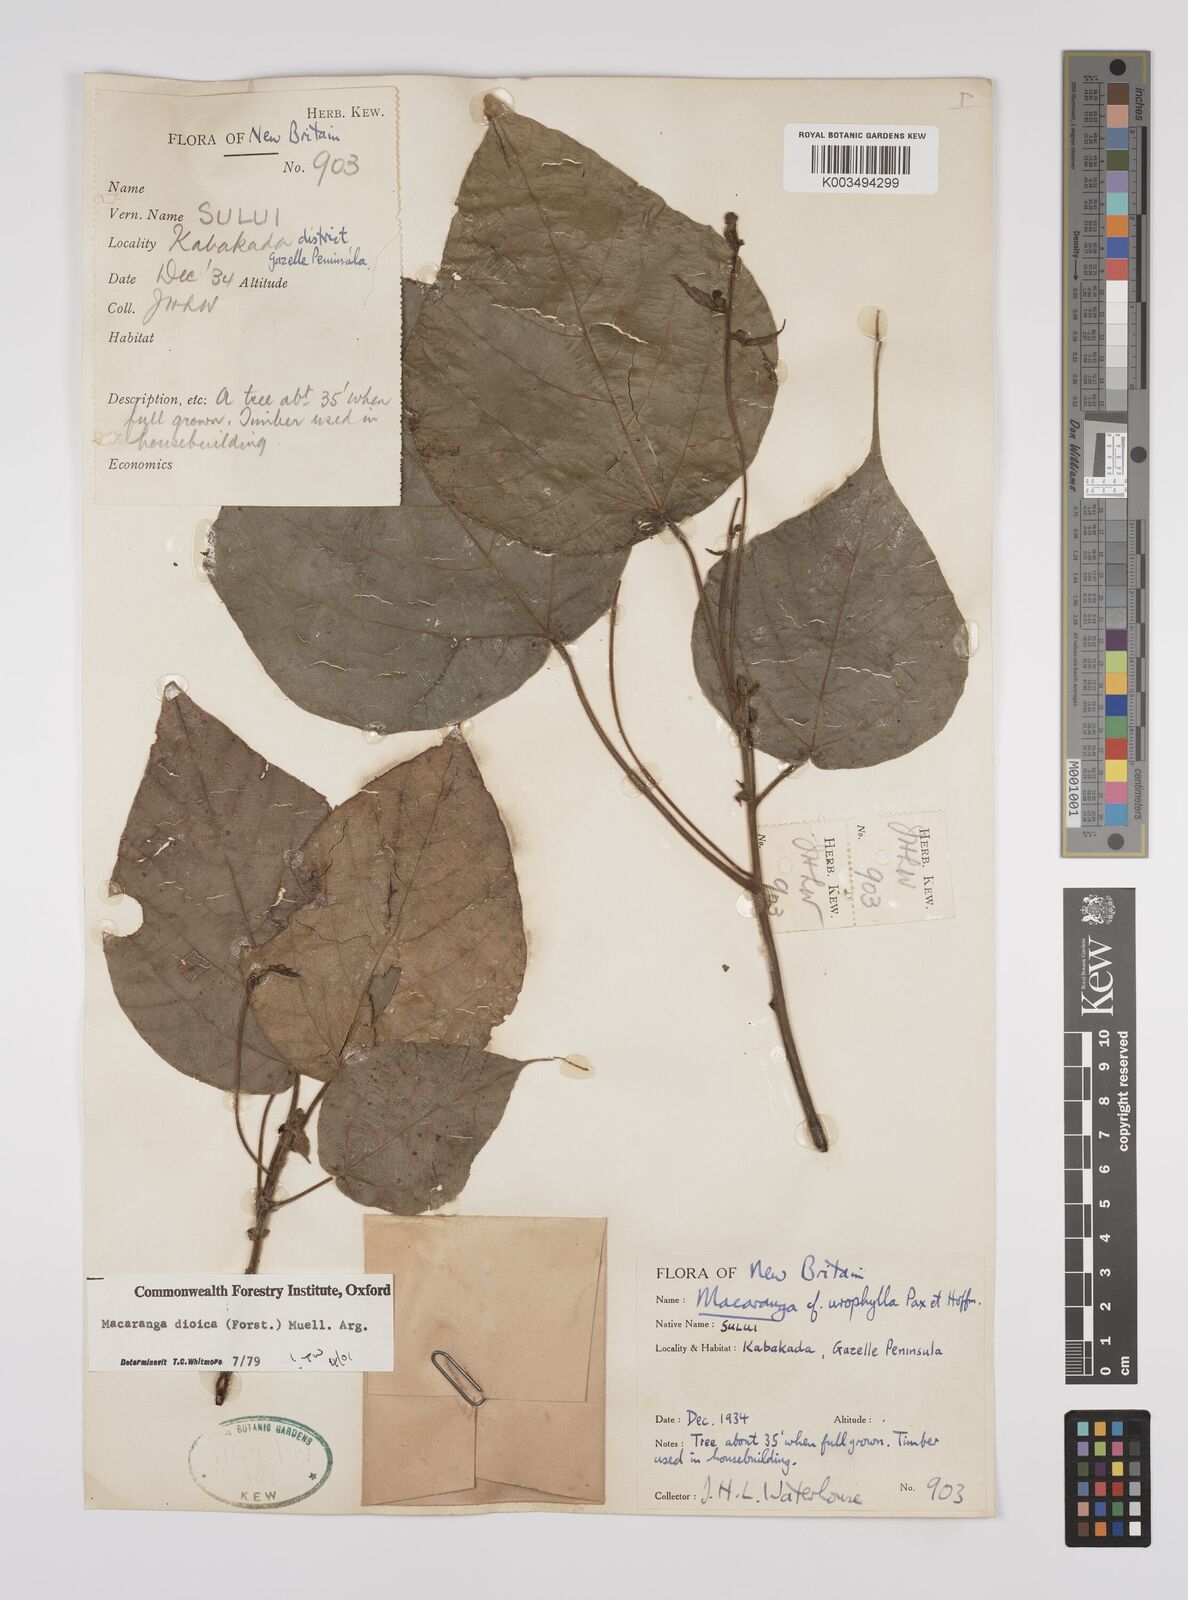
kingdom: Plantae
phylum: Tracheophyta
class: Magnoliopsida
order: Malpighiales
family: Euphorbiaceae
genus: Macaranga
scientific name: Macaranga dioica
